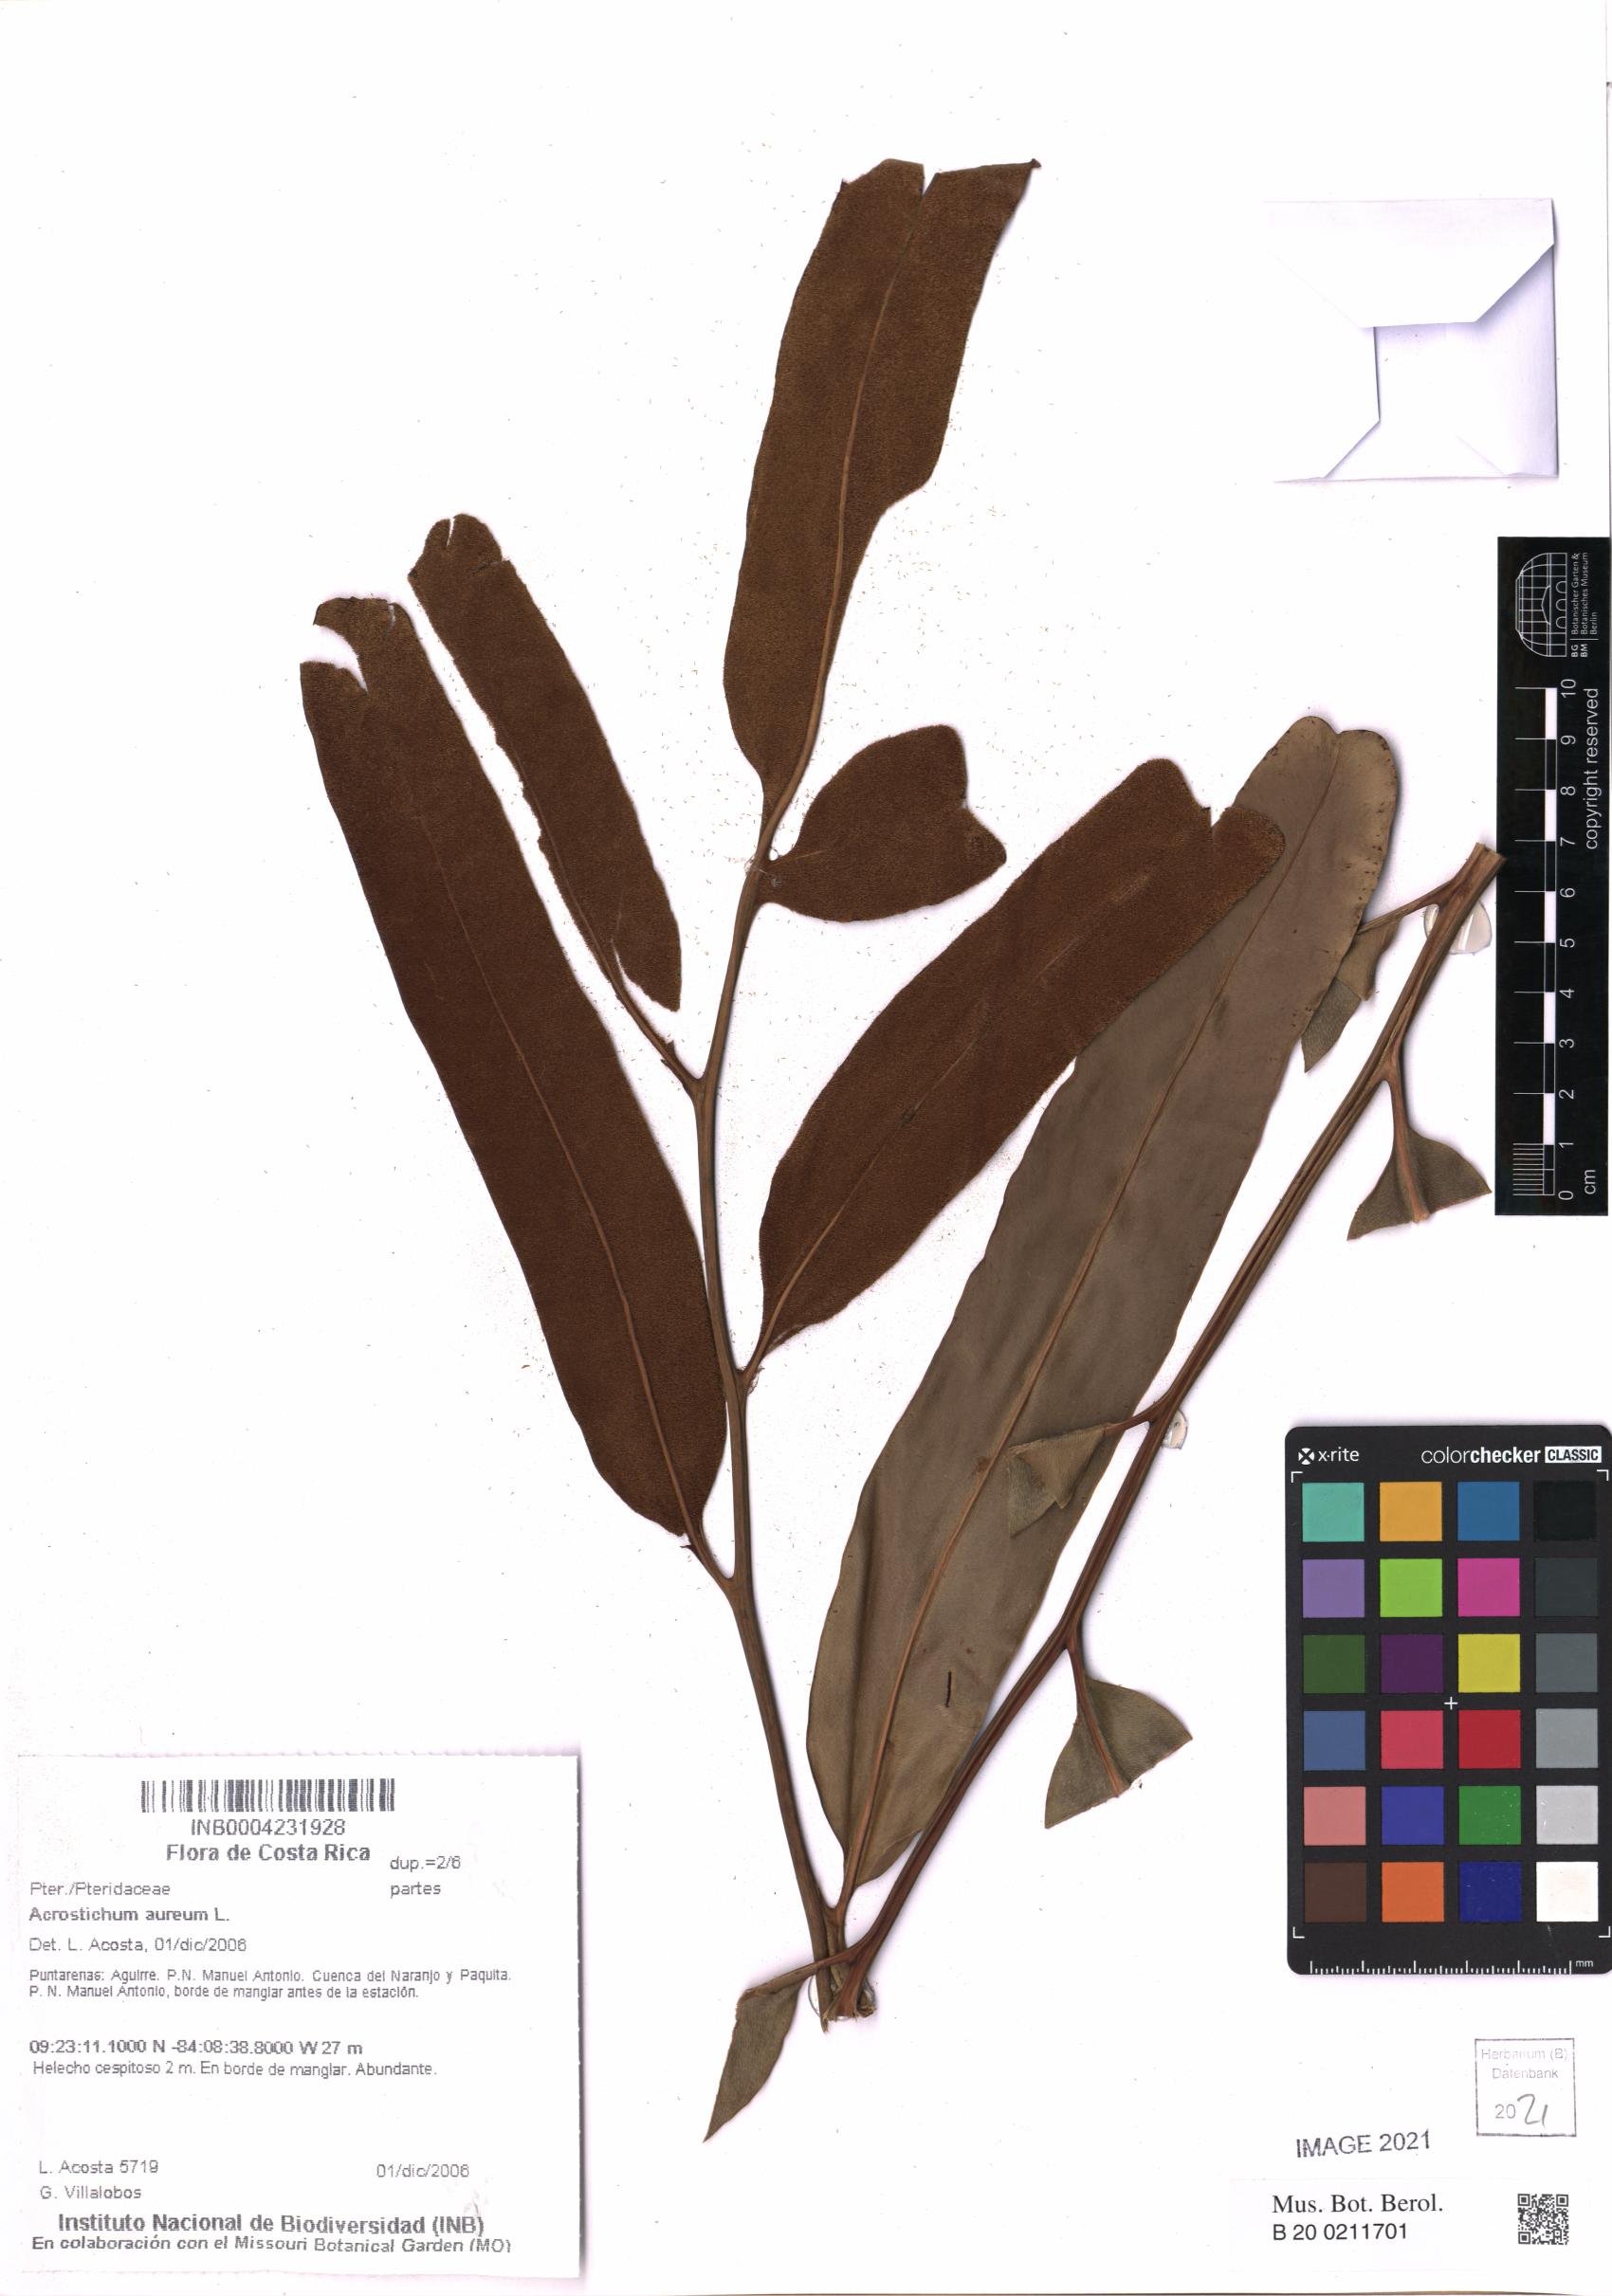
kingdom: Plantae
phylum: Tracheophyta
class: Polypodiopsida
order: Polypodiales
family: Pteridaceae
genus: Acrostichum
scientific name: Acrostichum aureum
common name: Leather fern
